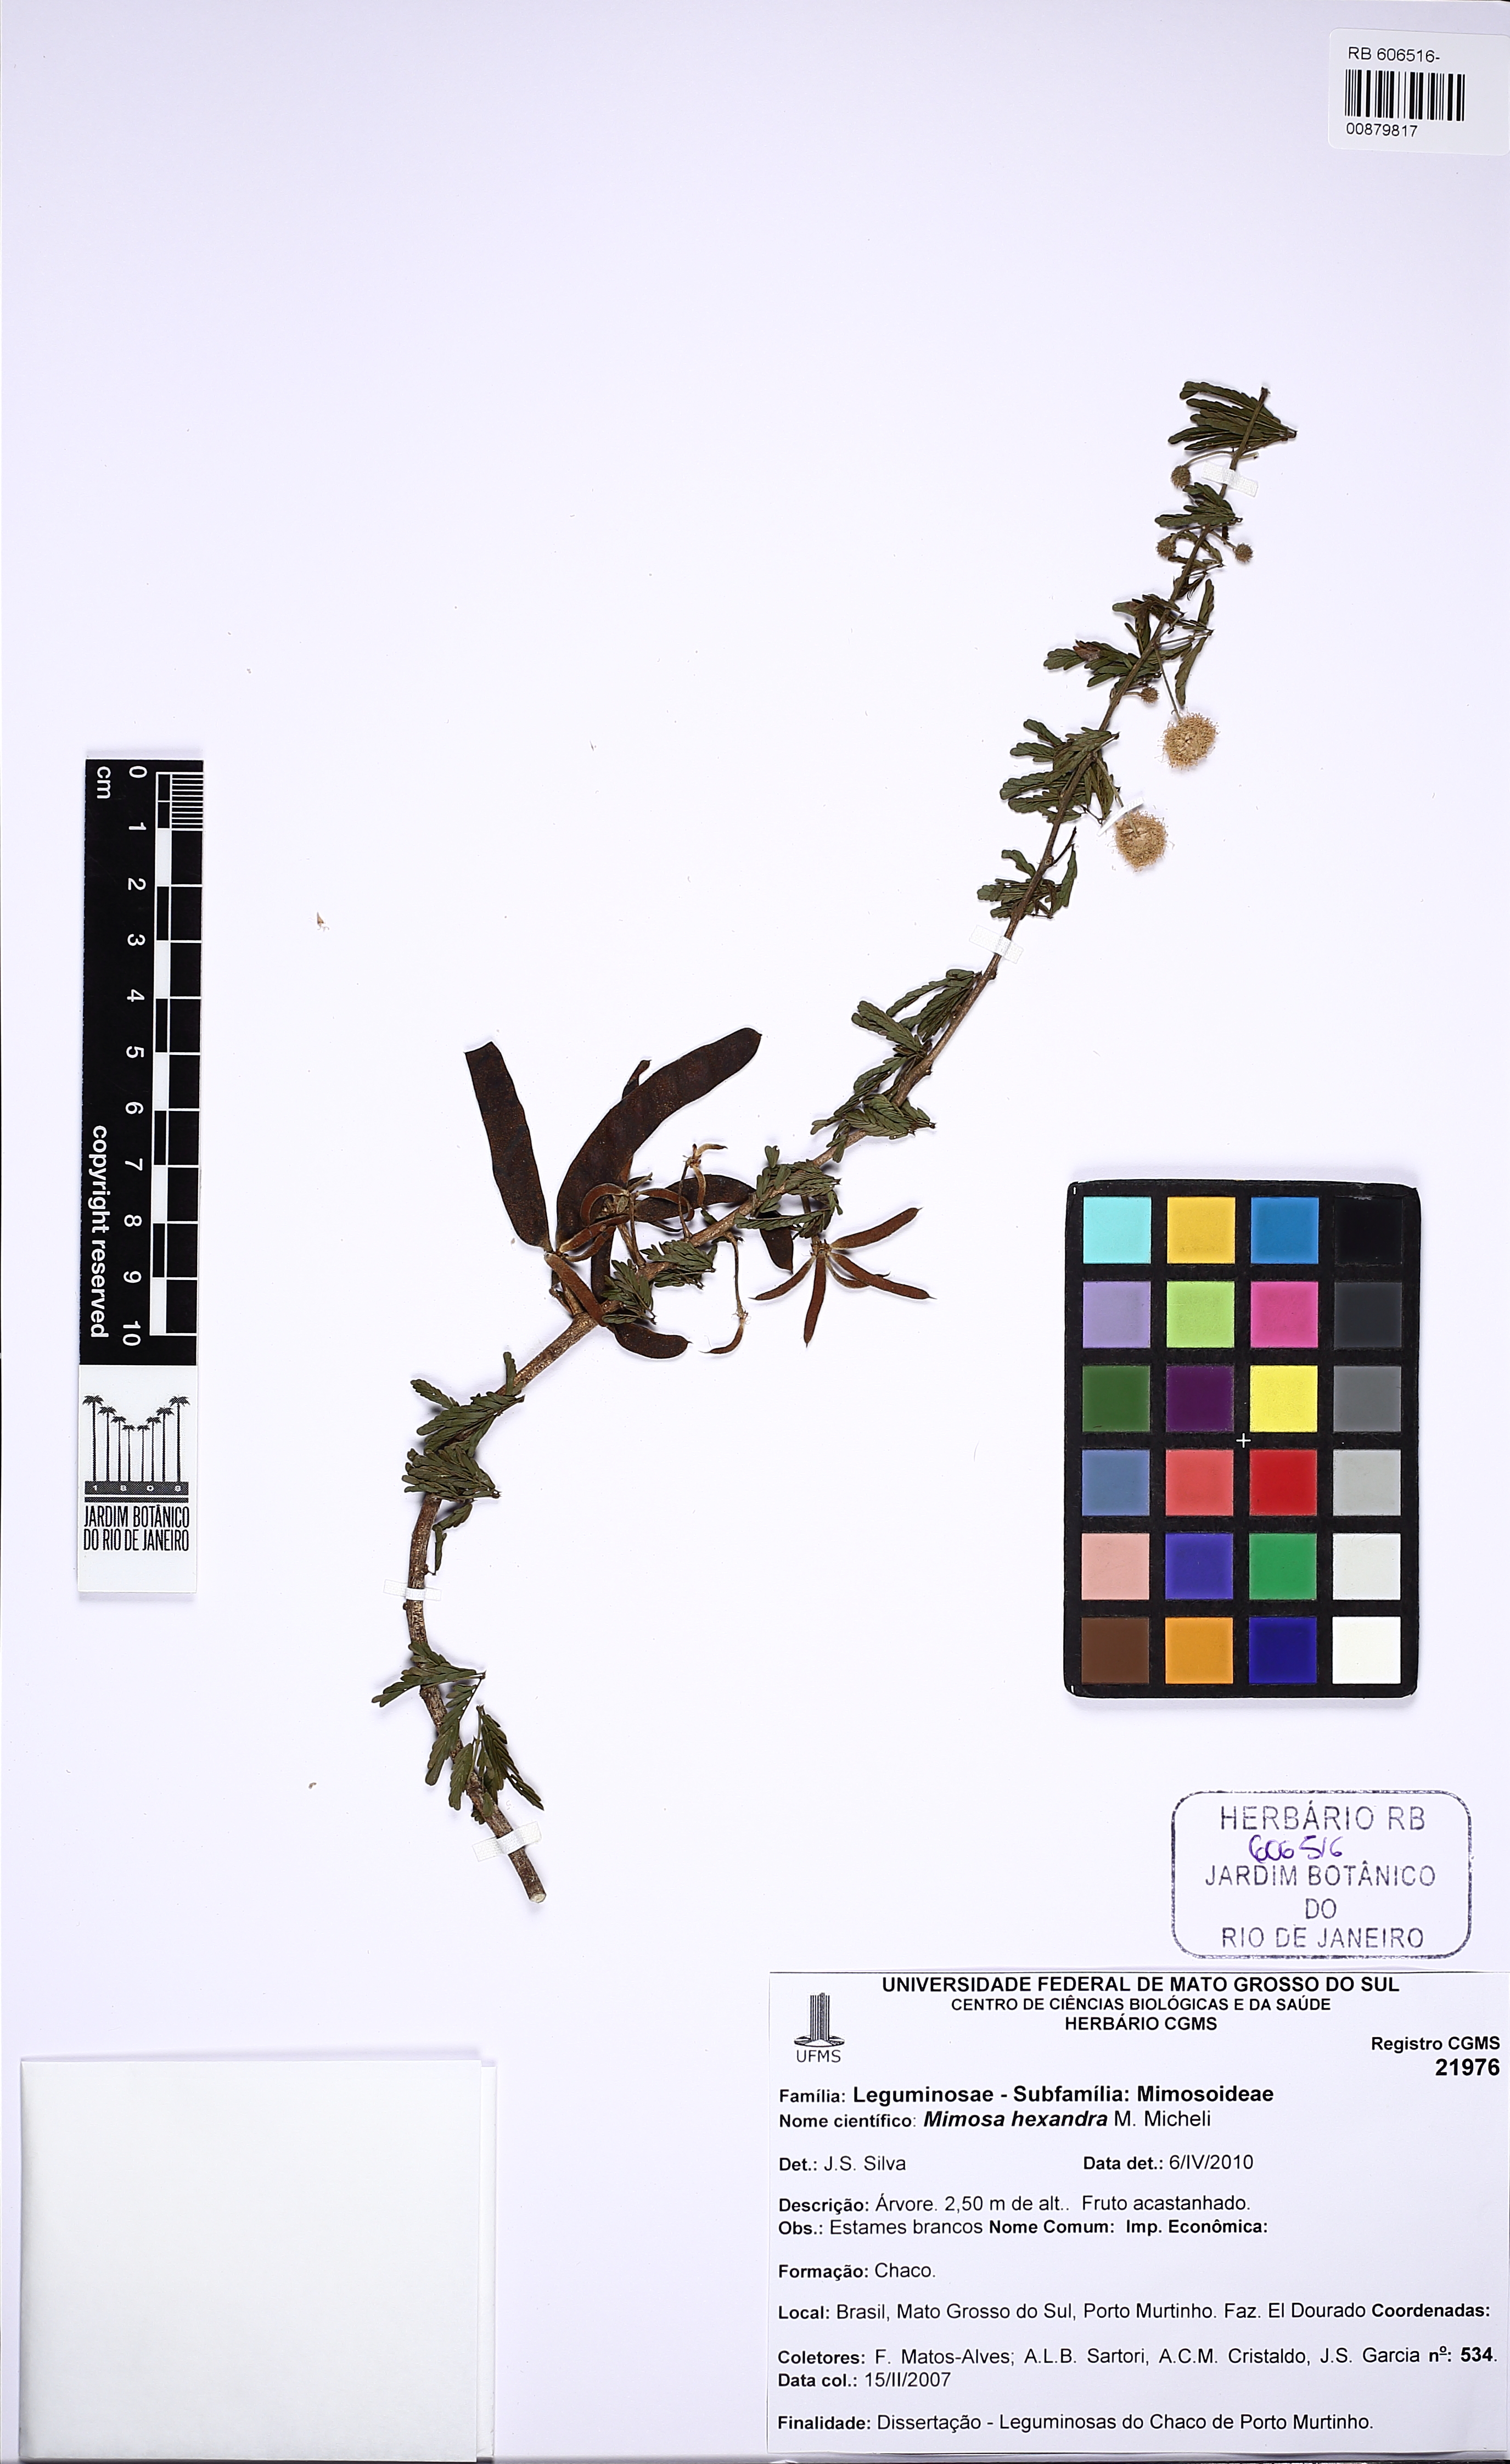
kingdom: Plantae
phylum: Tracheophyta
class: Magnoliopsida
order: Fabales
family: Fabaceae
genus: Mimosa
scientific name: Mimosa hexandra
